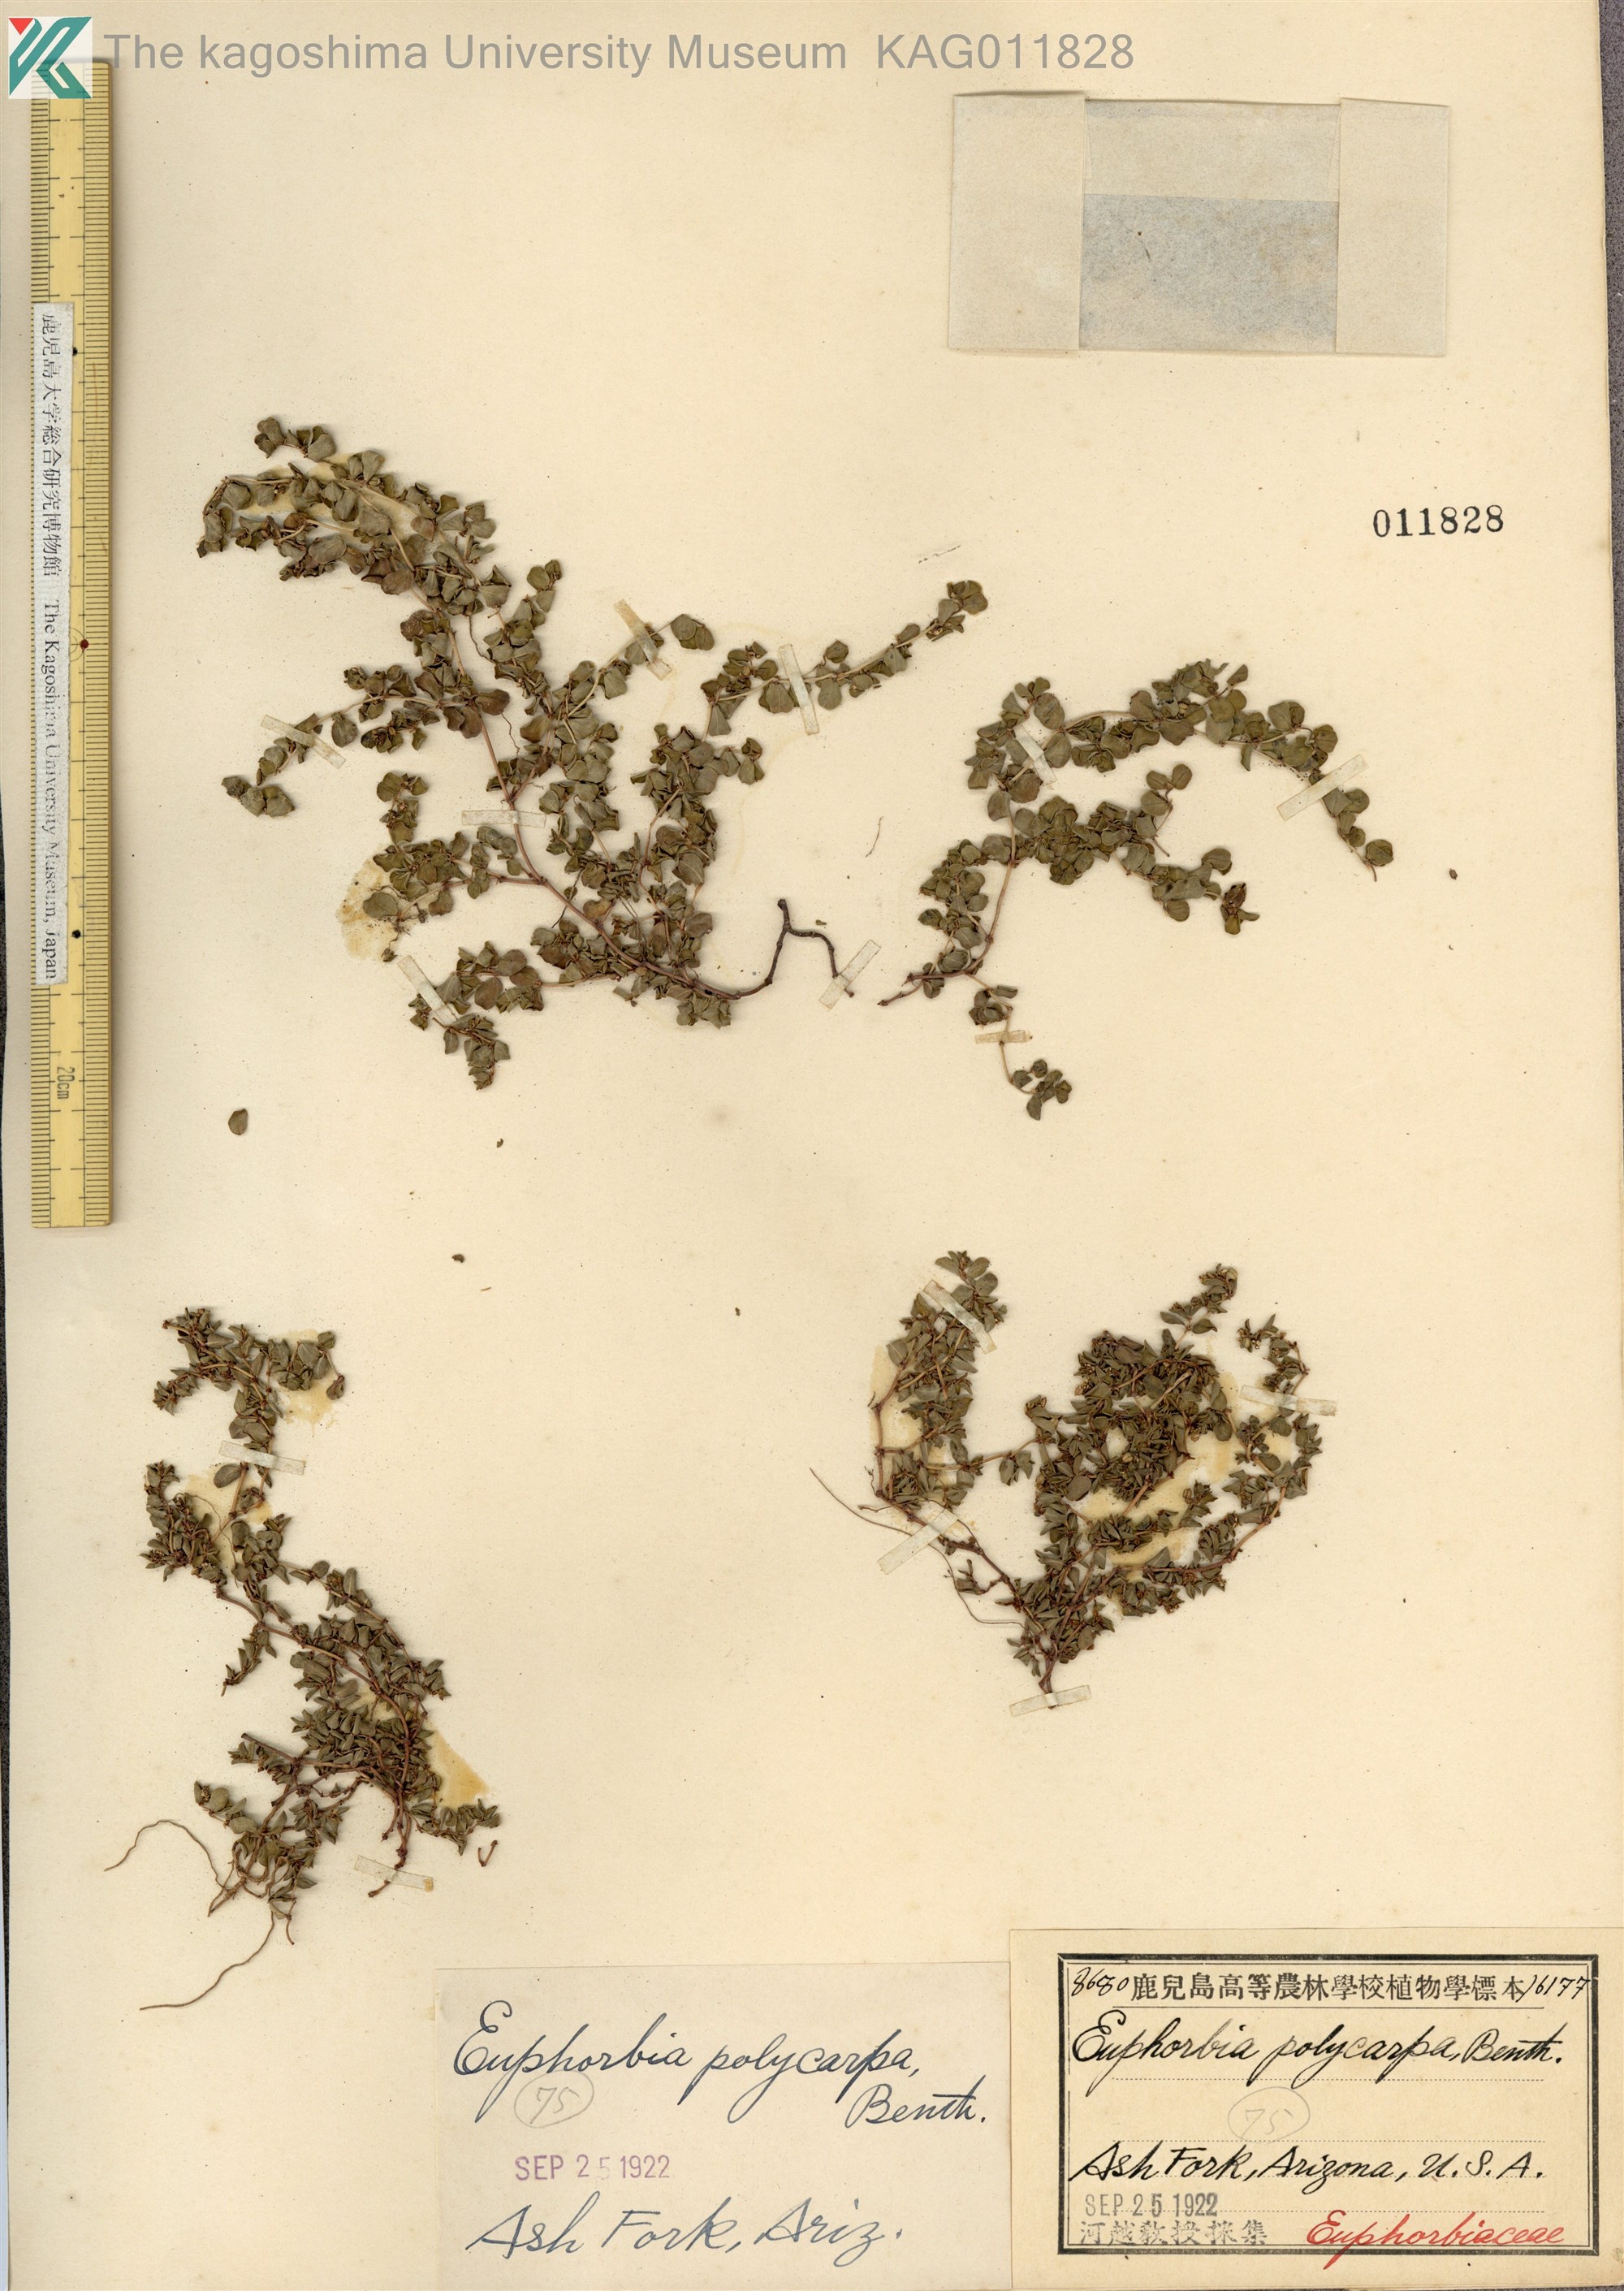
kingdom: Plantae
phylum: Tracheophyta
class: Magnoliopsida
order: Malpighiales
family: Euphorbiaceae
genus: Euphorbia
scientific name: Euphorbia albomarginata
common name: Whitemargin sandmat
